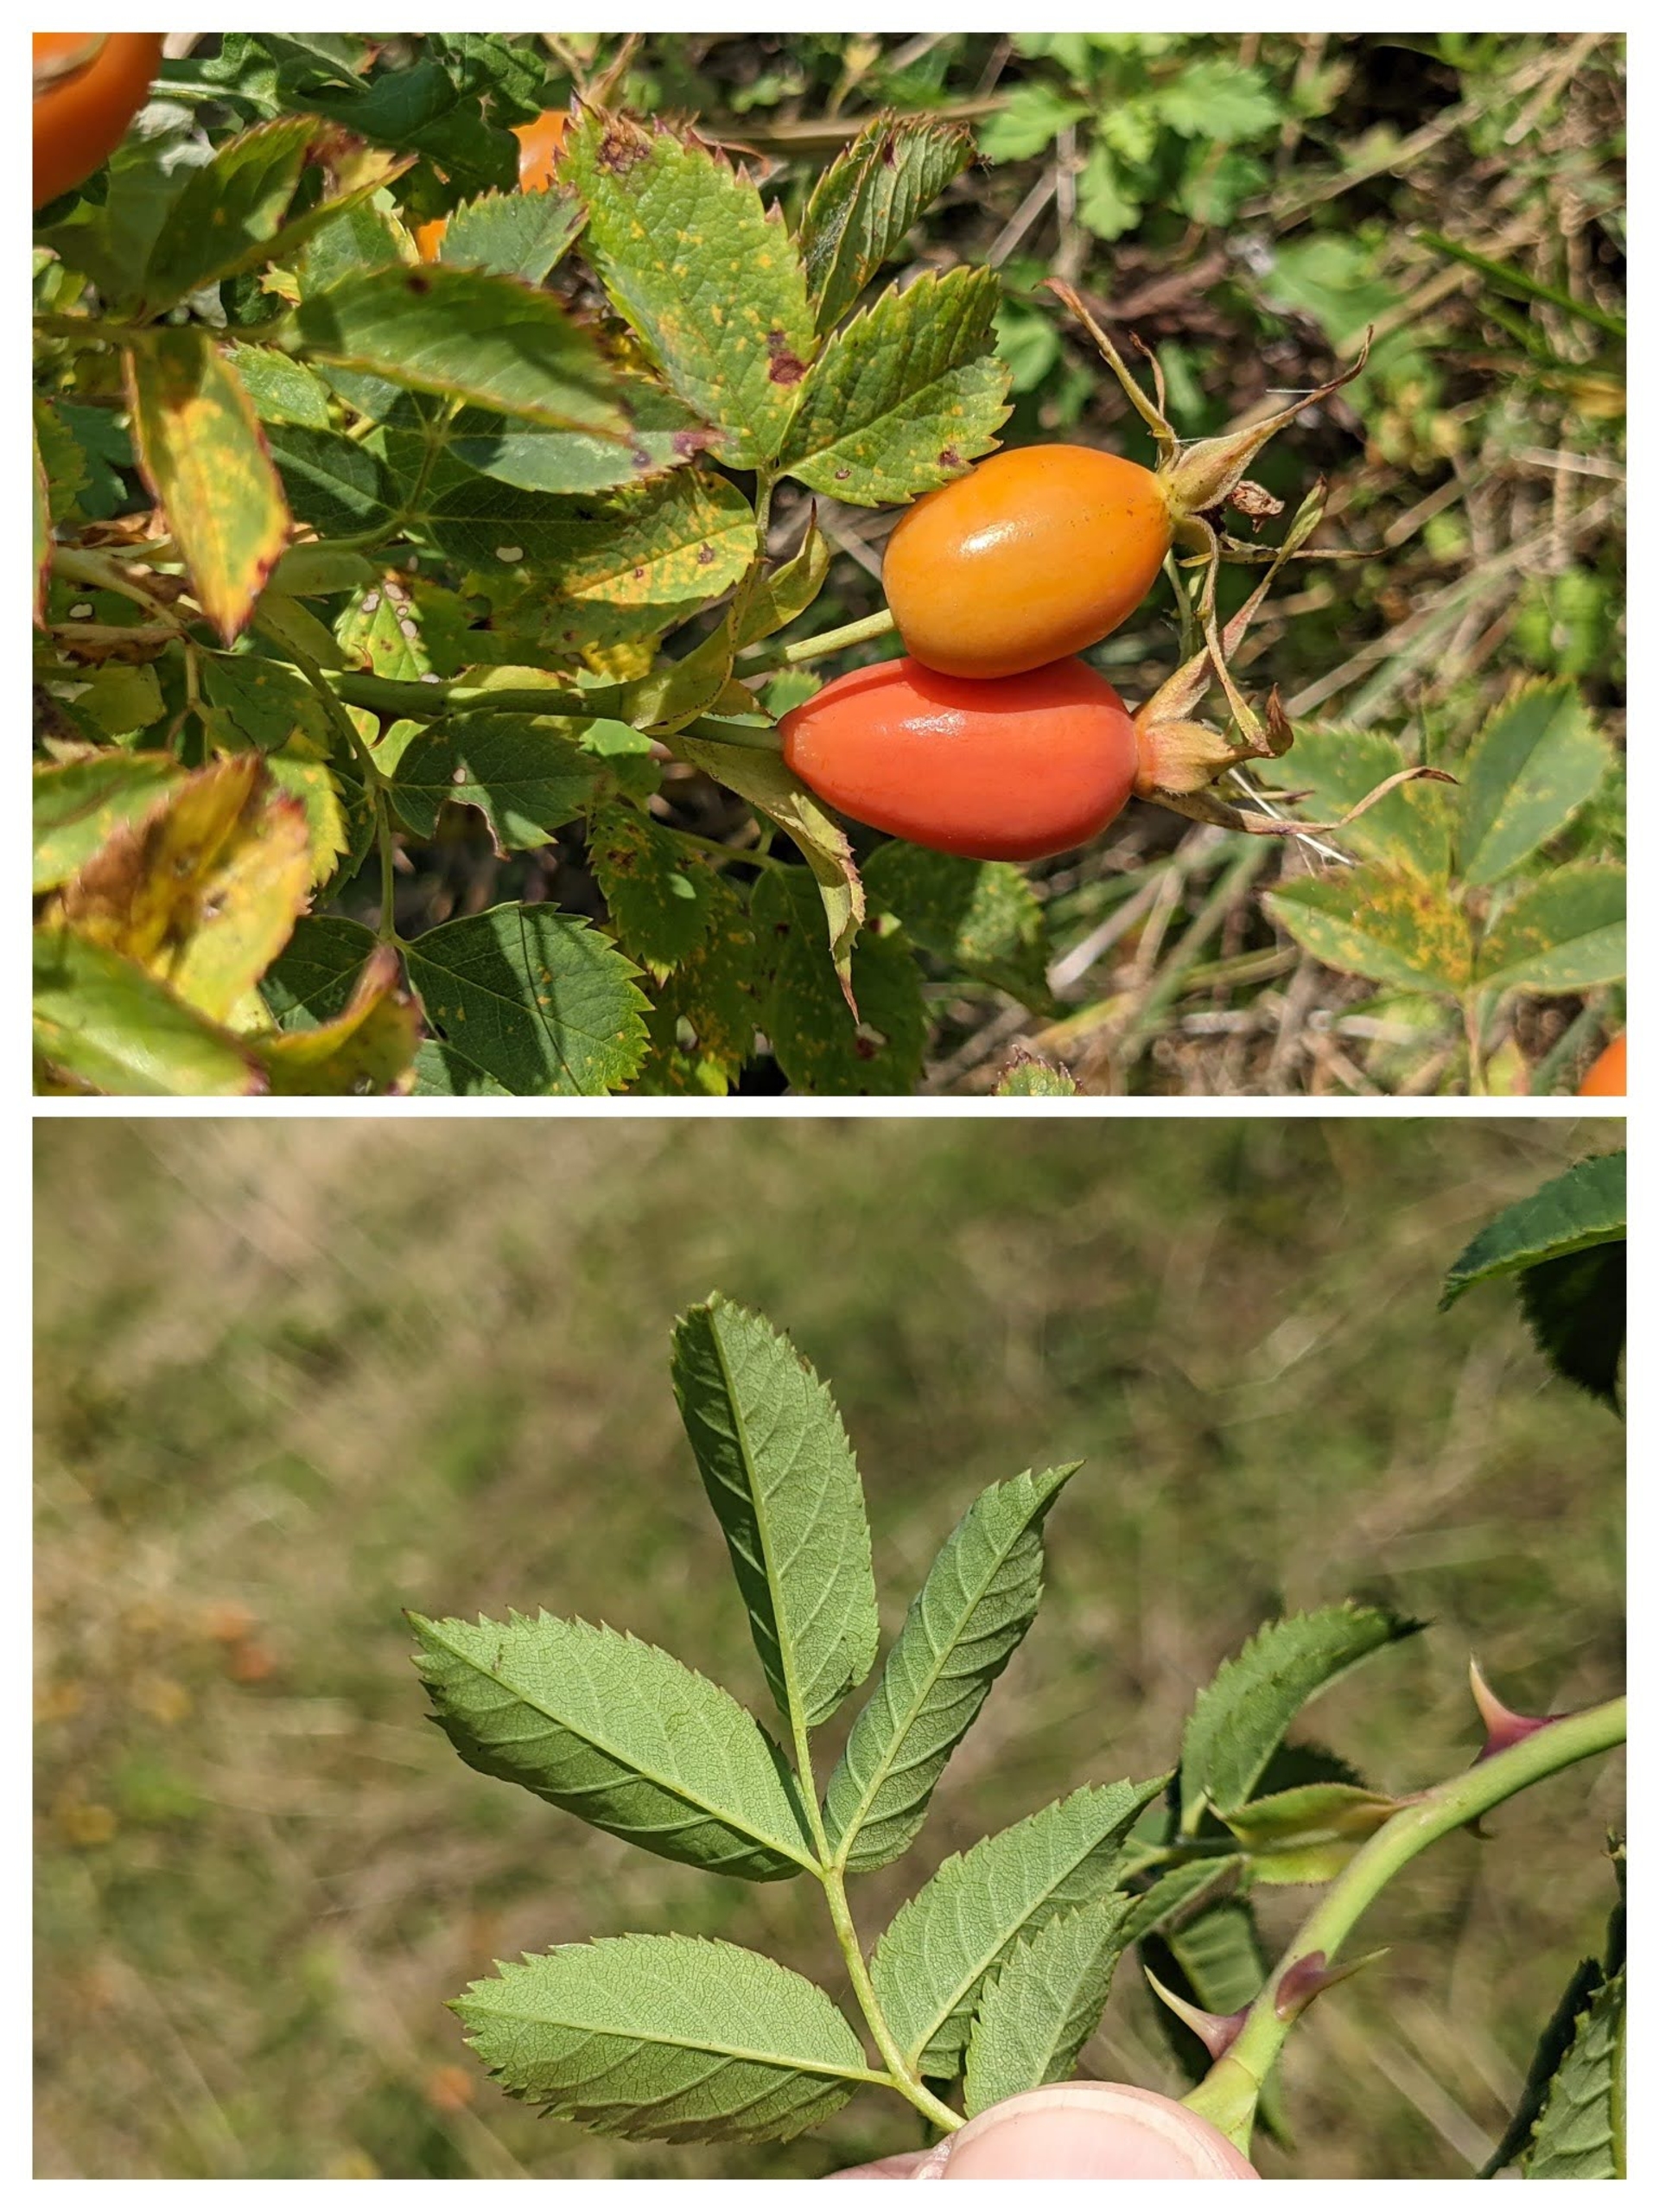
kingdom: Plantae
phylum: Tracheophyta
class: Magnoliopsida
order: Rosales
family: Rosaceae
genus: Rosa
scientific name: Rosa dumalis
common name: Blågrøn rose (underart)
